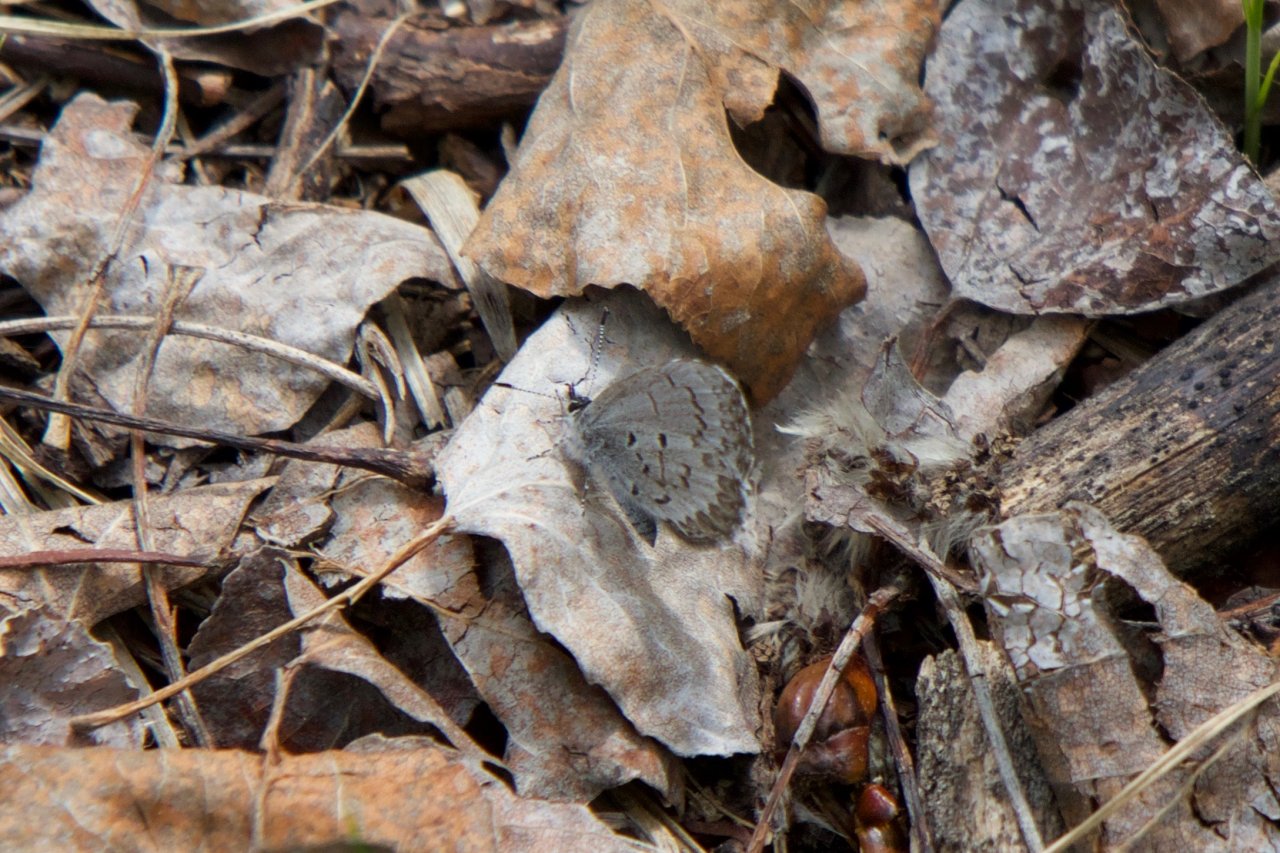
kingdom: Animalia
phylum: Arthropoda
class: Insecta
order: Lepidoptera
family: Lycaenidae
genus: Celastrina
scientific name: Celastrina lucia
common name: Northern Spring Azure
